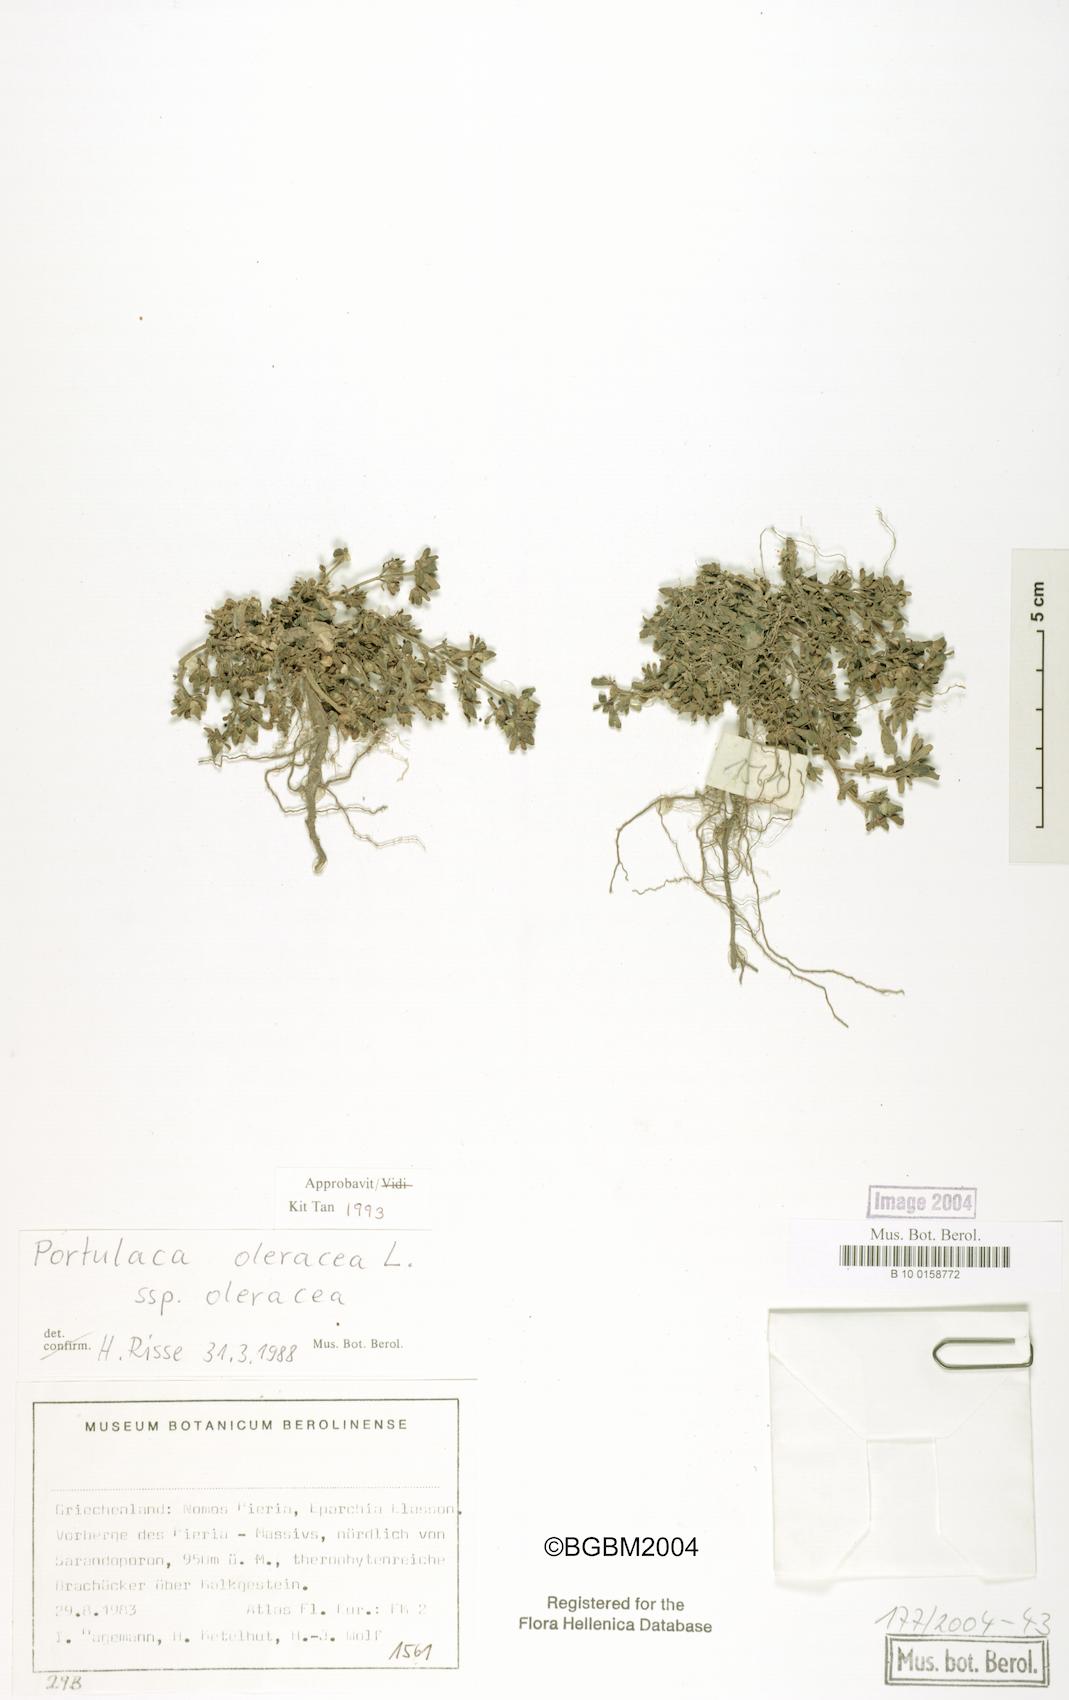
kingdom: Plantae
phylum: Tracheophyta
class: Magnoliopsida
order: Caryophyllales
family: Portulacaceae
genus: Portulaca
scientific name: Portulaca oleracea
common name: Common purslane
